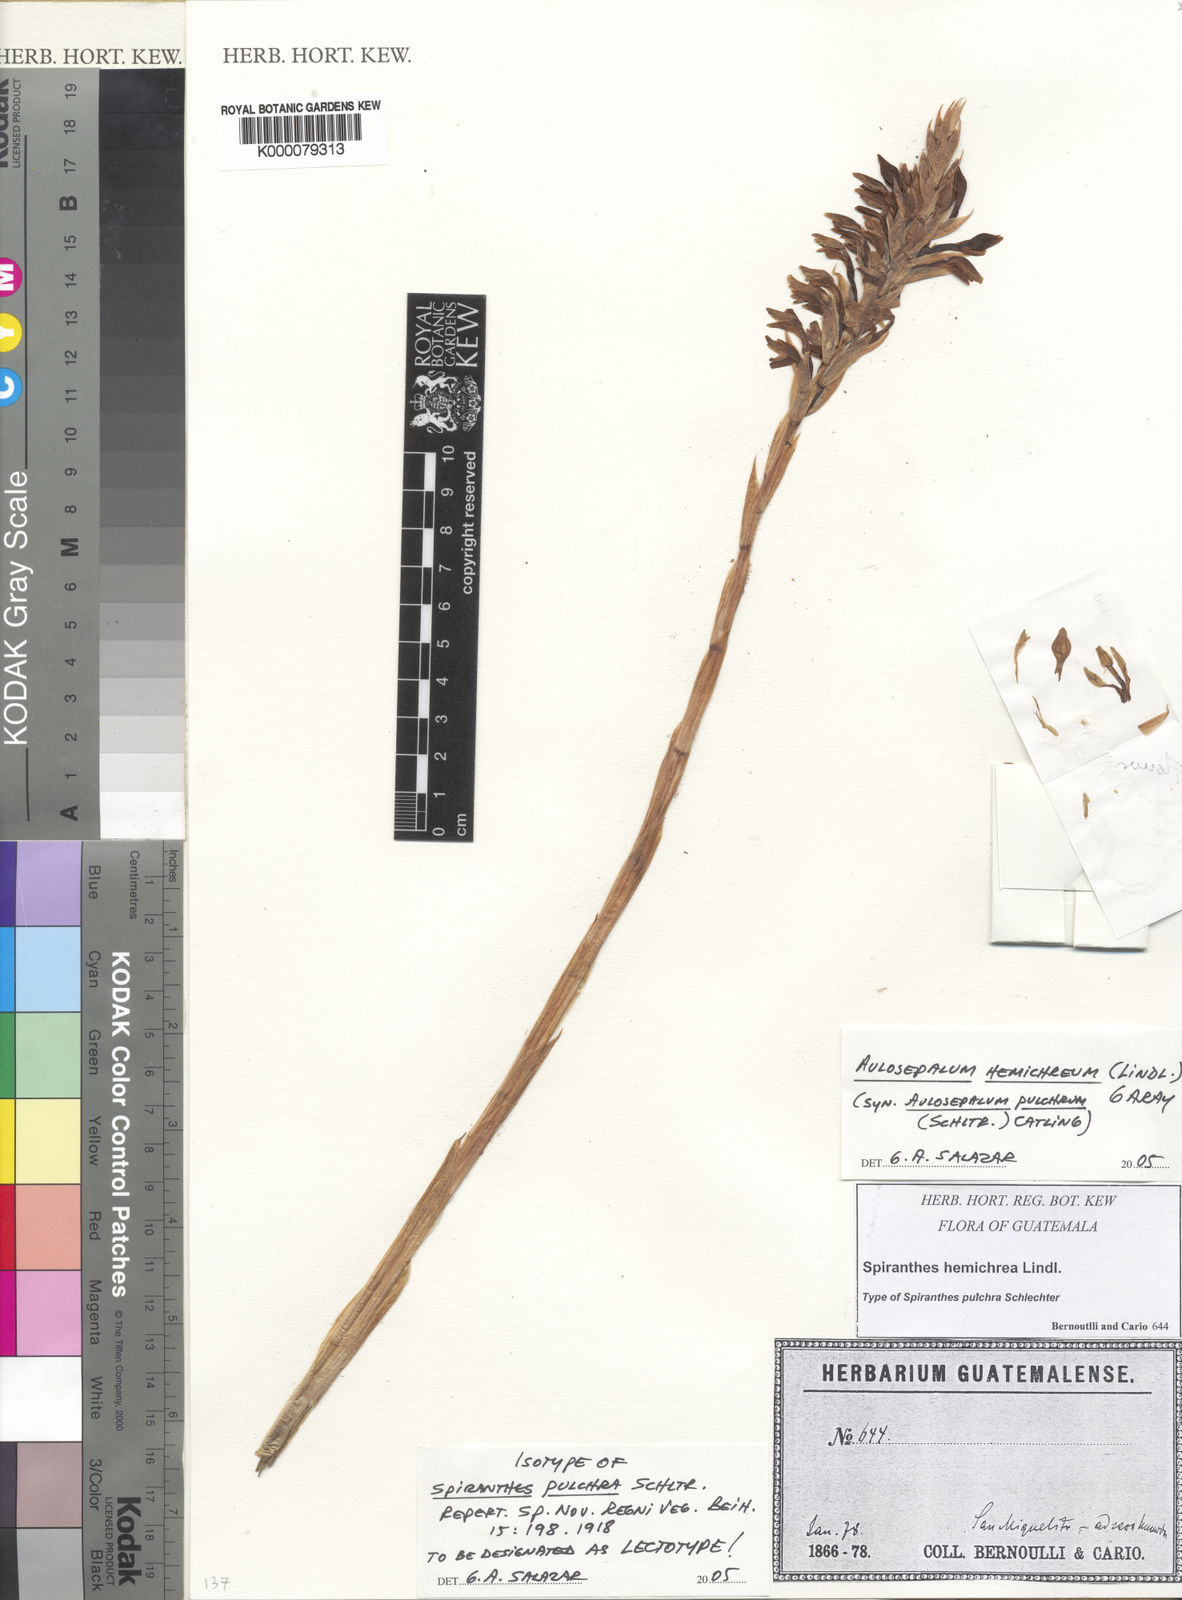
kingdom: Plantae
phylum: Tracheophyta
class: Liliopsida
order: Asparagales
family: Orchidaceae
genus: Aulosepalum
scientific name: Aulosepalum hemichrea
